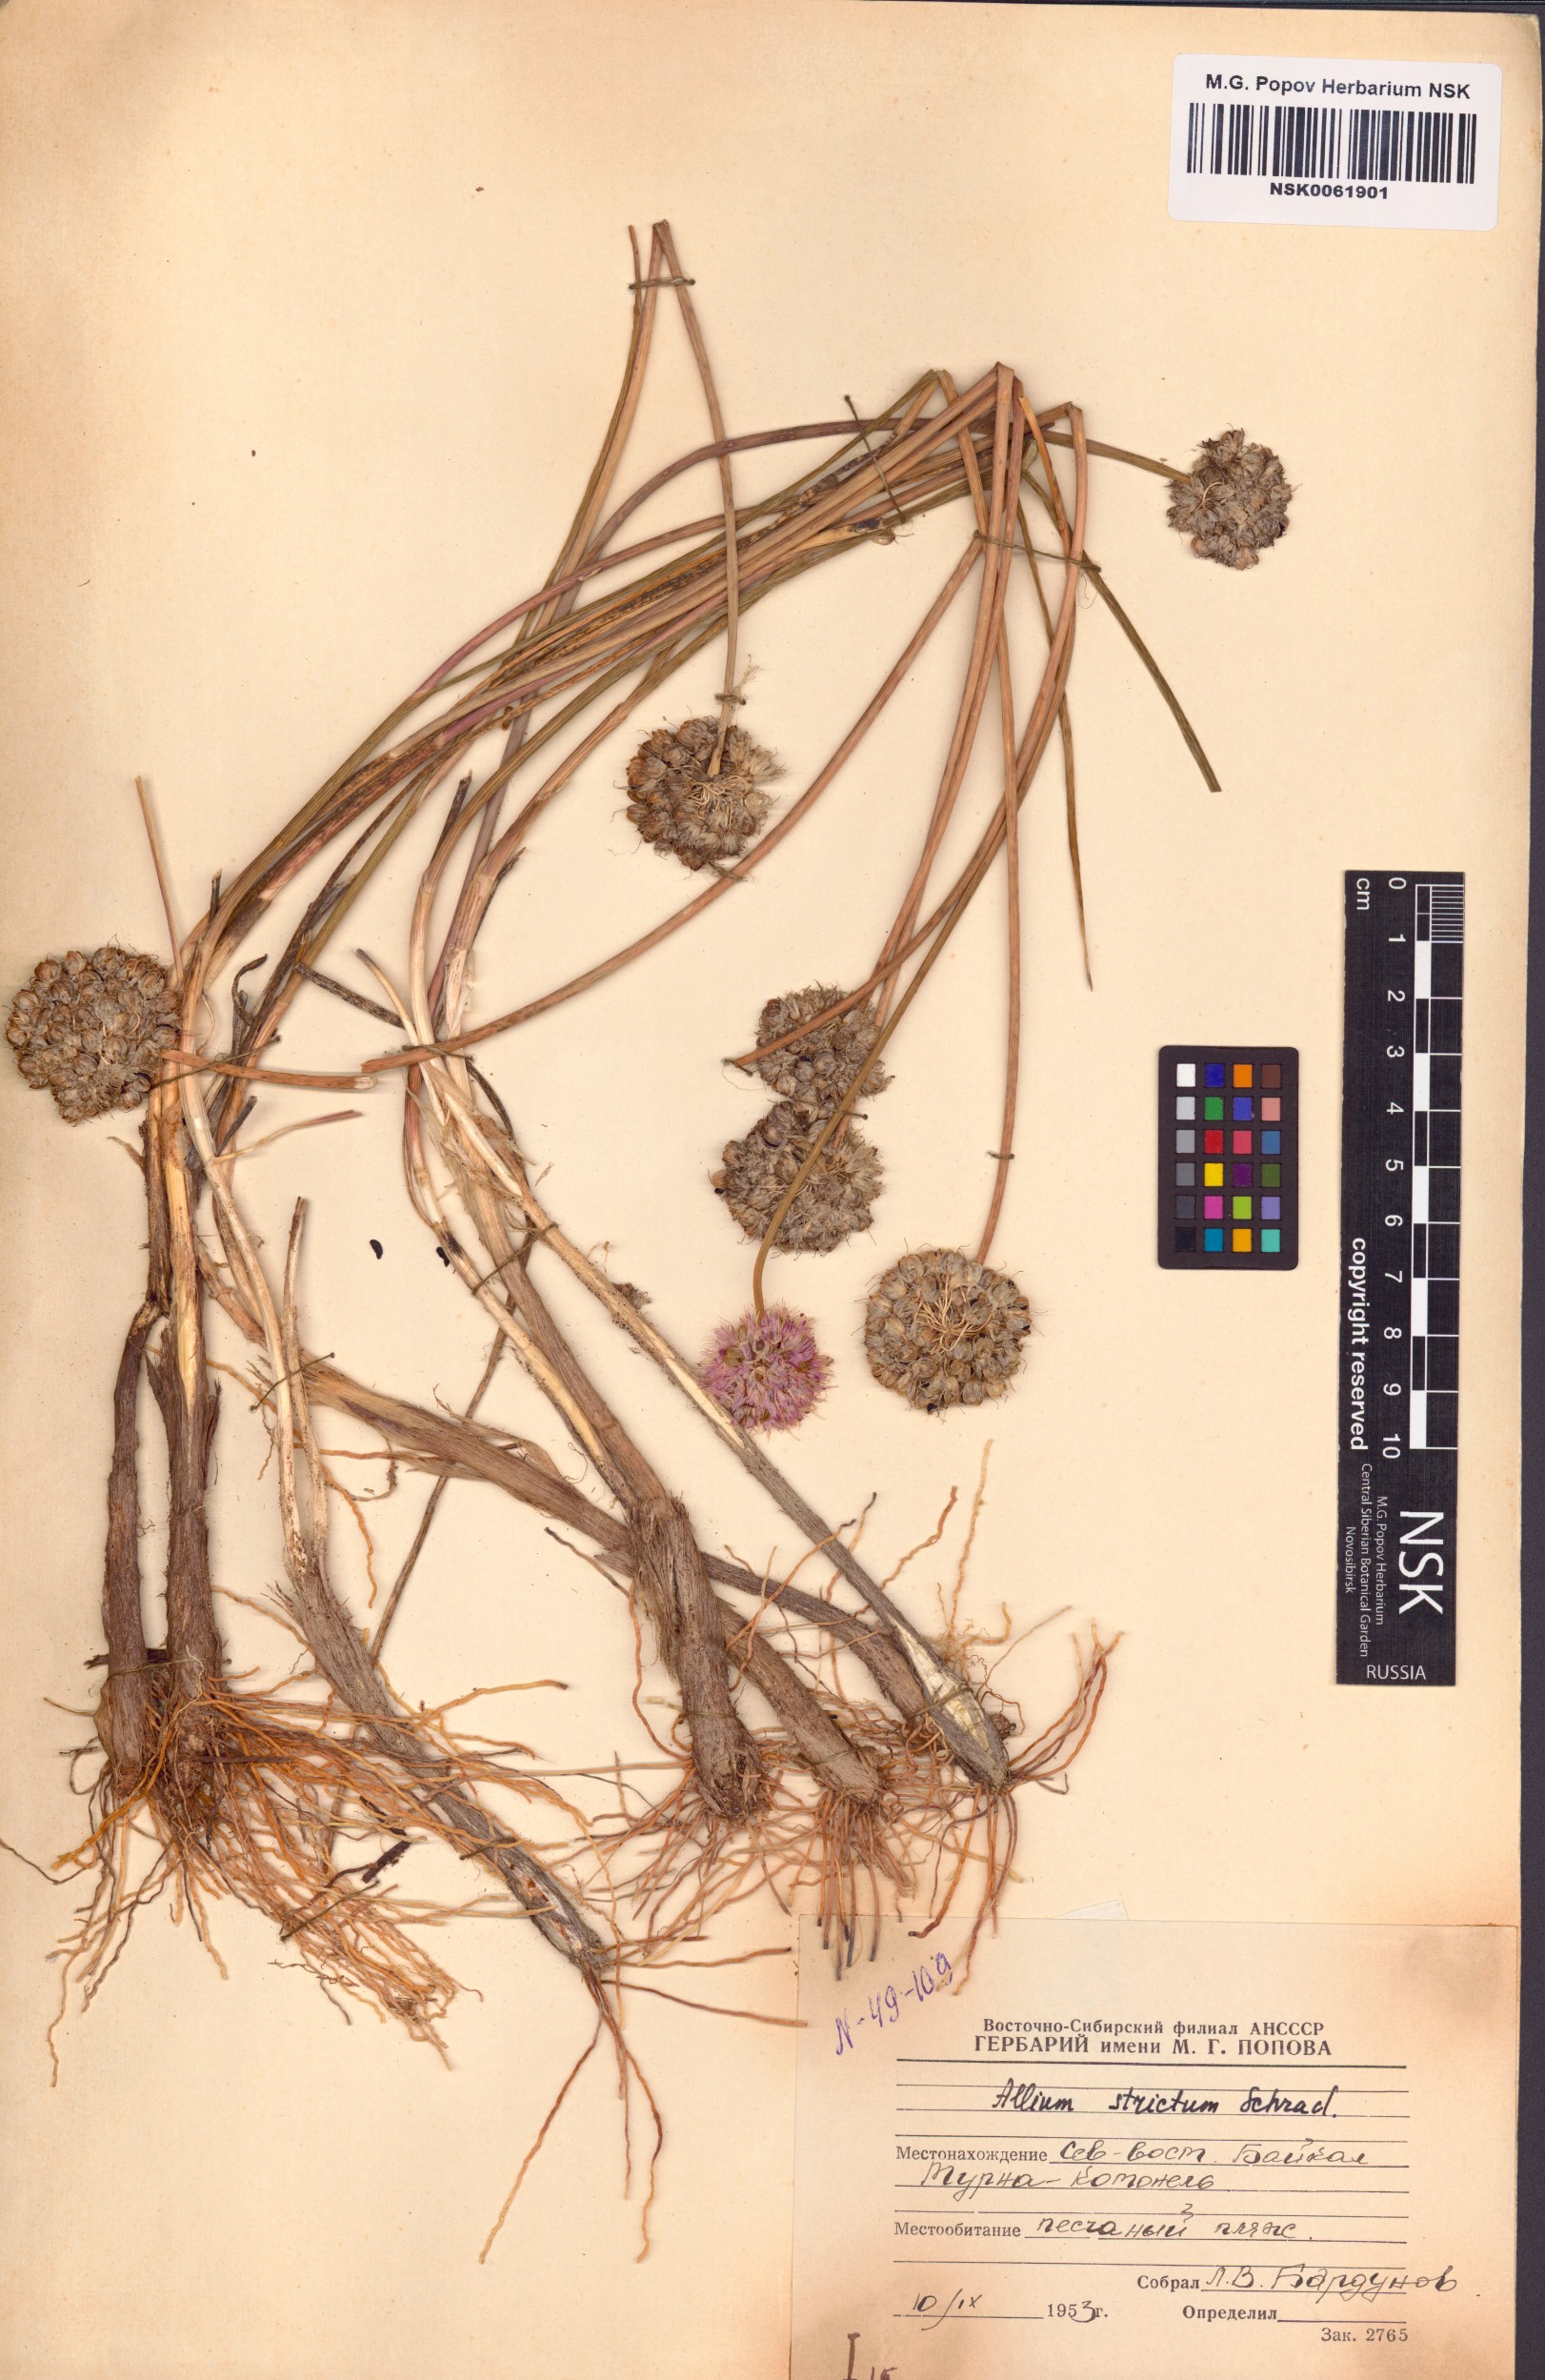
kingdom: Plantae
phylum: Tracheophyta
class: Liliopsida
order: Asparagales
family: Amaryllidaceae
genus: Allium
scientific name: Allium strictum
